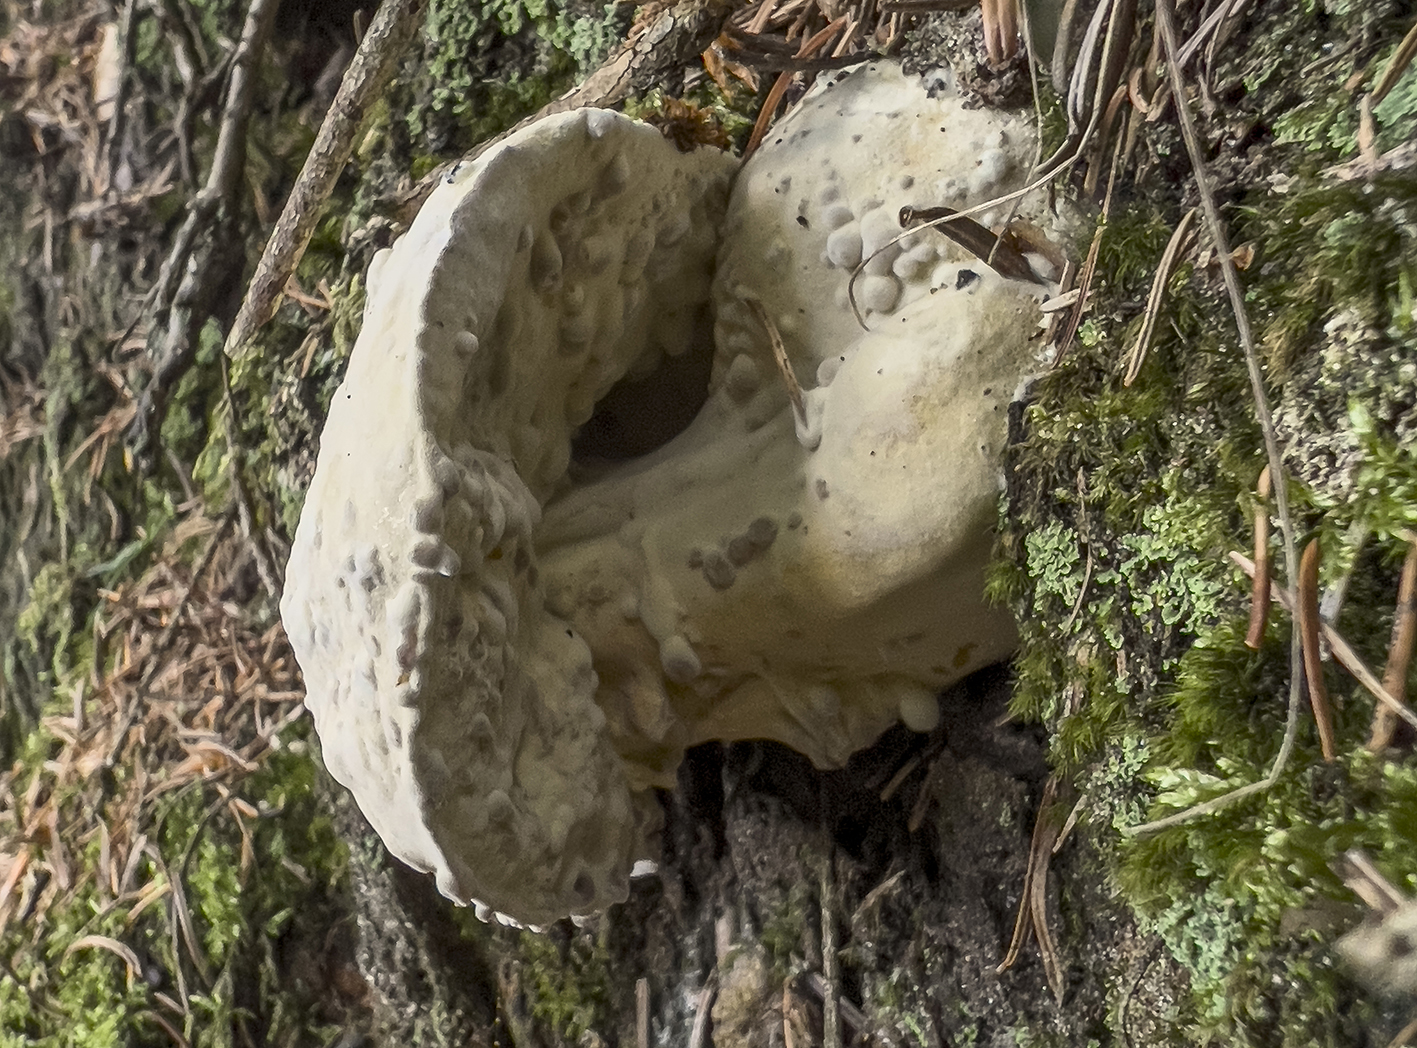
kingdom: Fungi
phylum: Ascomycota
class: Sordariomycetes
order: Hypocreales
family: Hypocreaceae
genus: Hypomyces
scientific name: Hypomyces
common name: snylteskorpe
